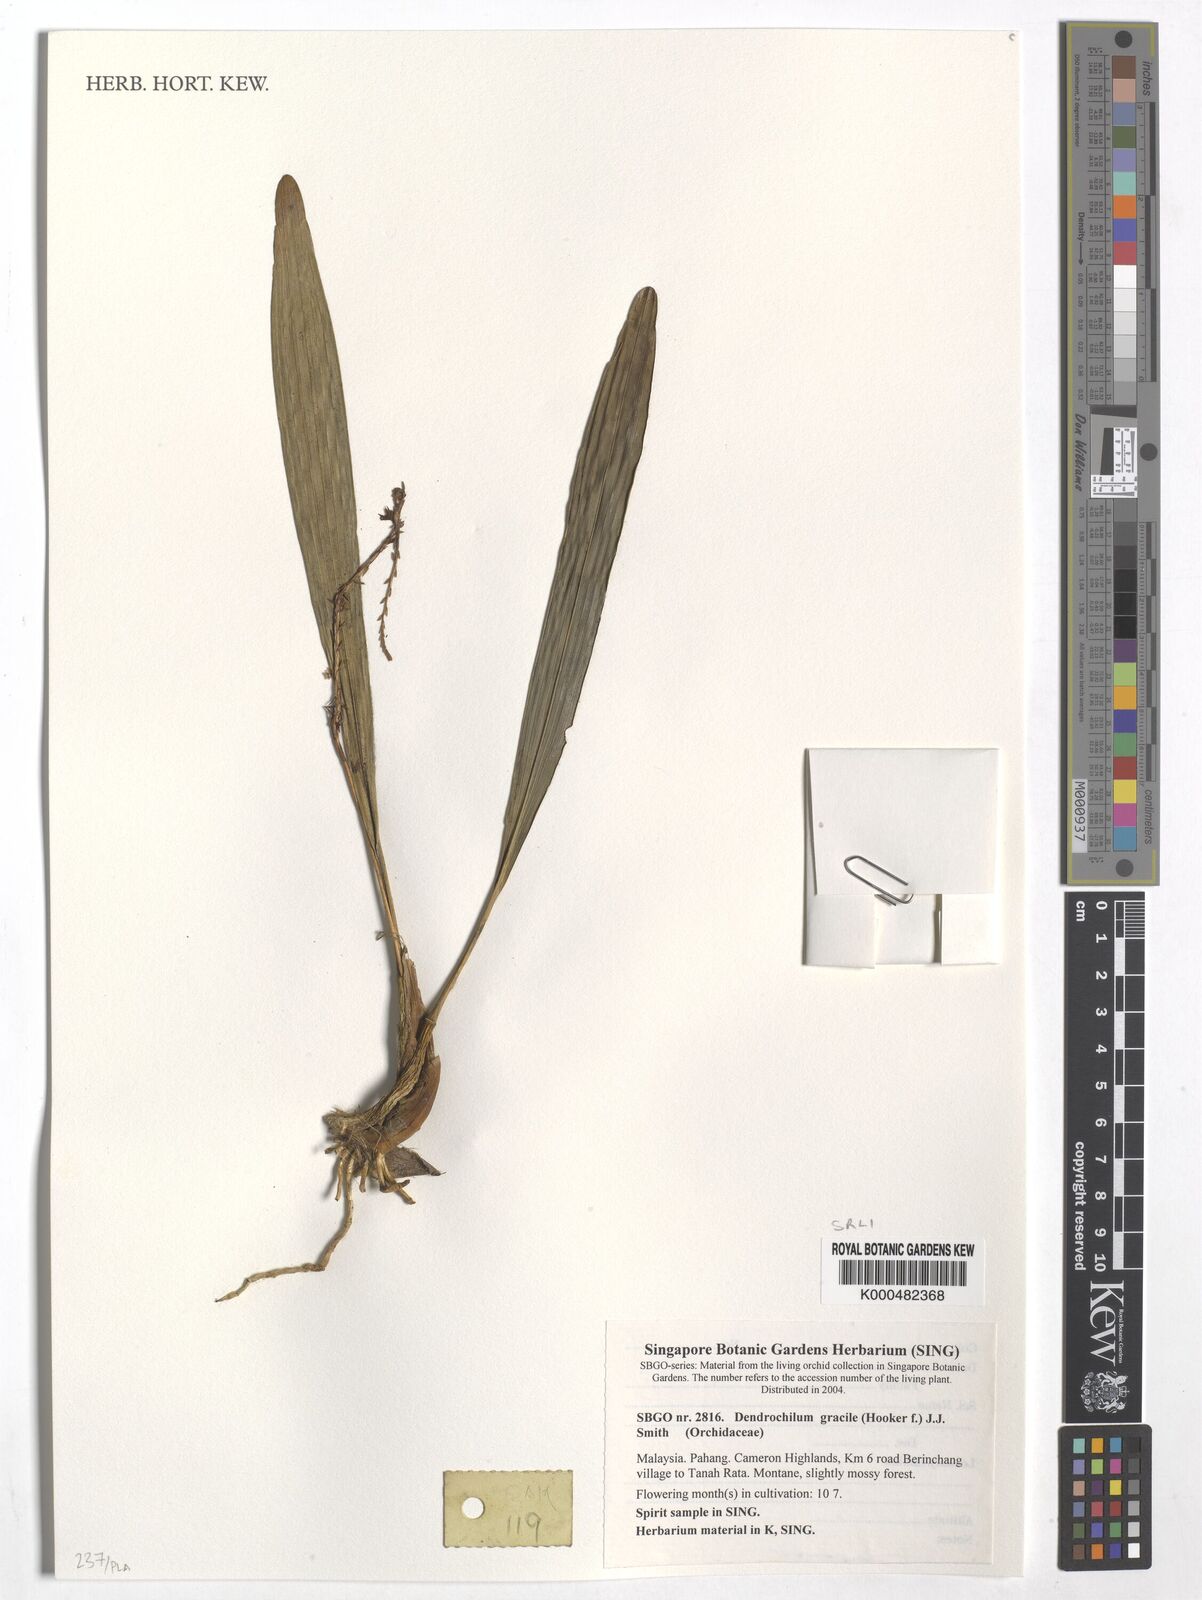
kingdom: Plantae
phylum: Tracheophyta
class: Liliopsida
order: Asparagales
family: Orchidaceae
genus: Coelogyne
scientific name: Coelogyne gracilis
